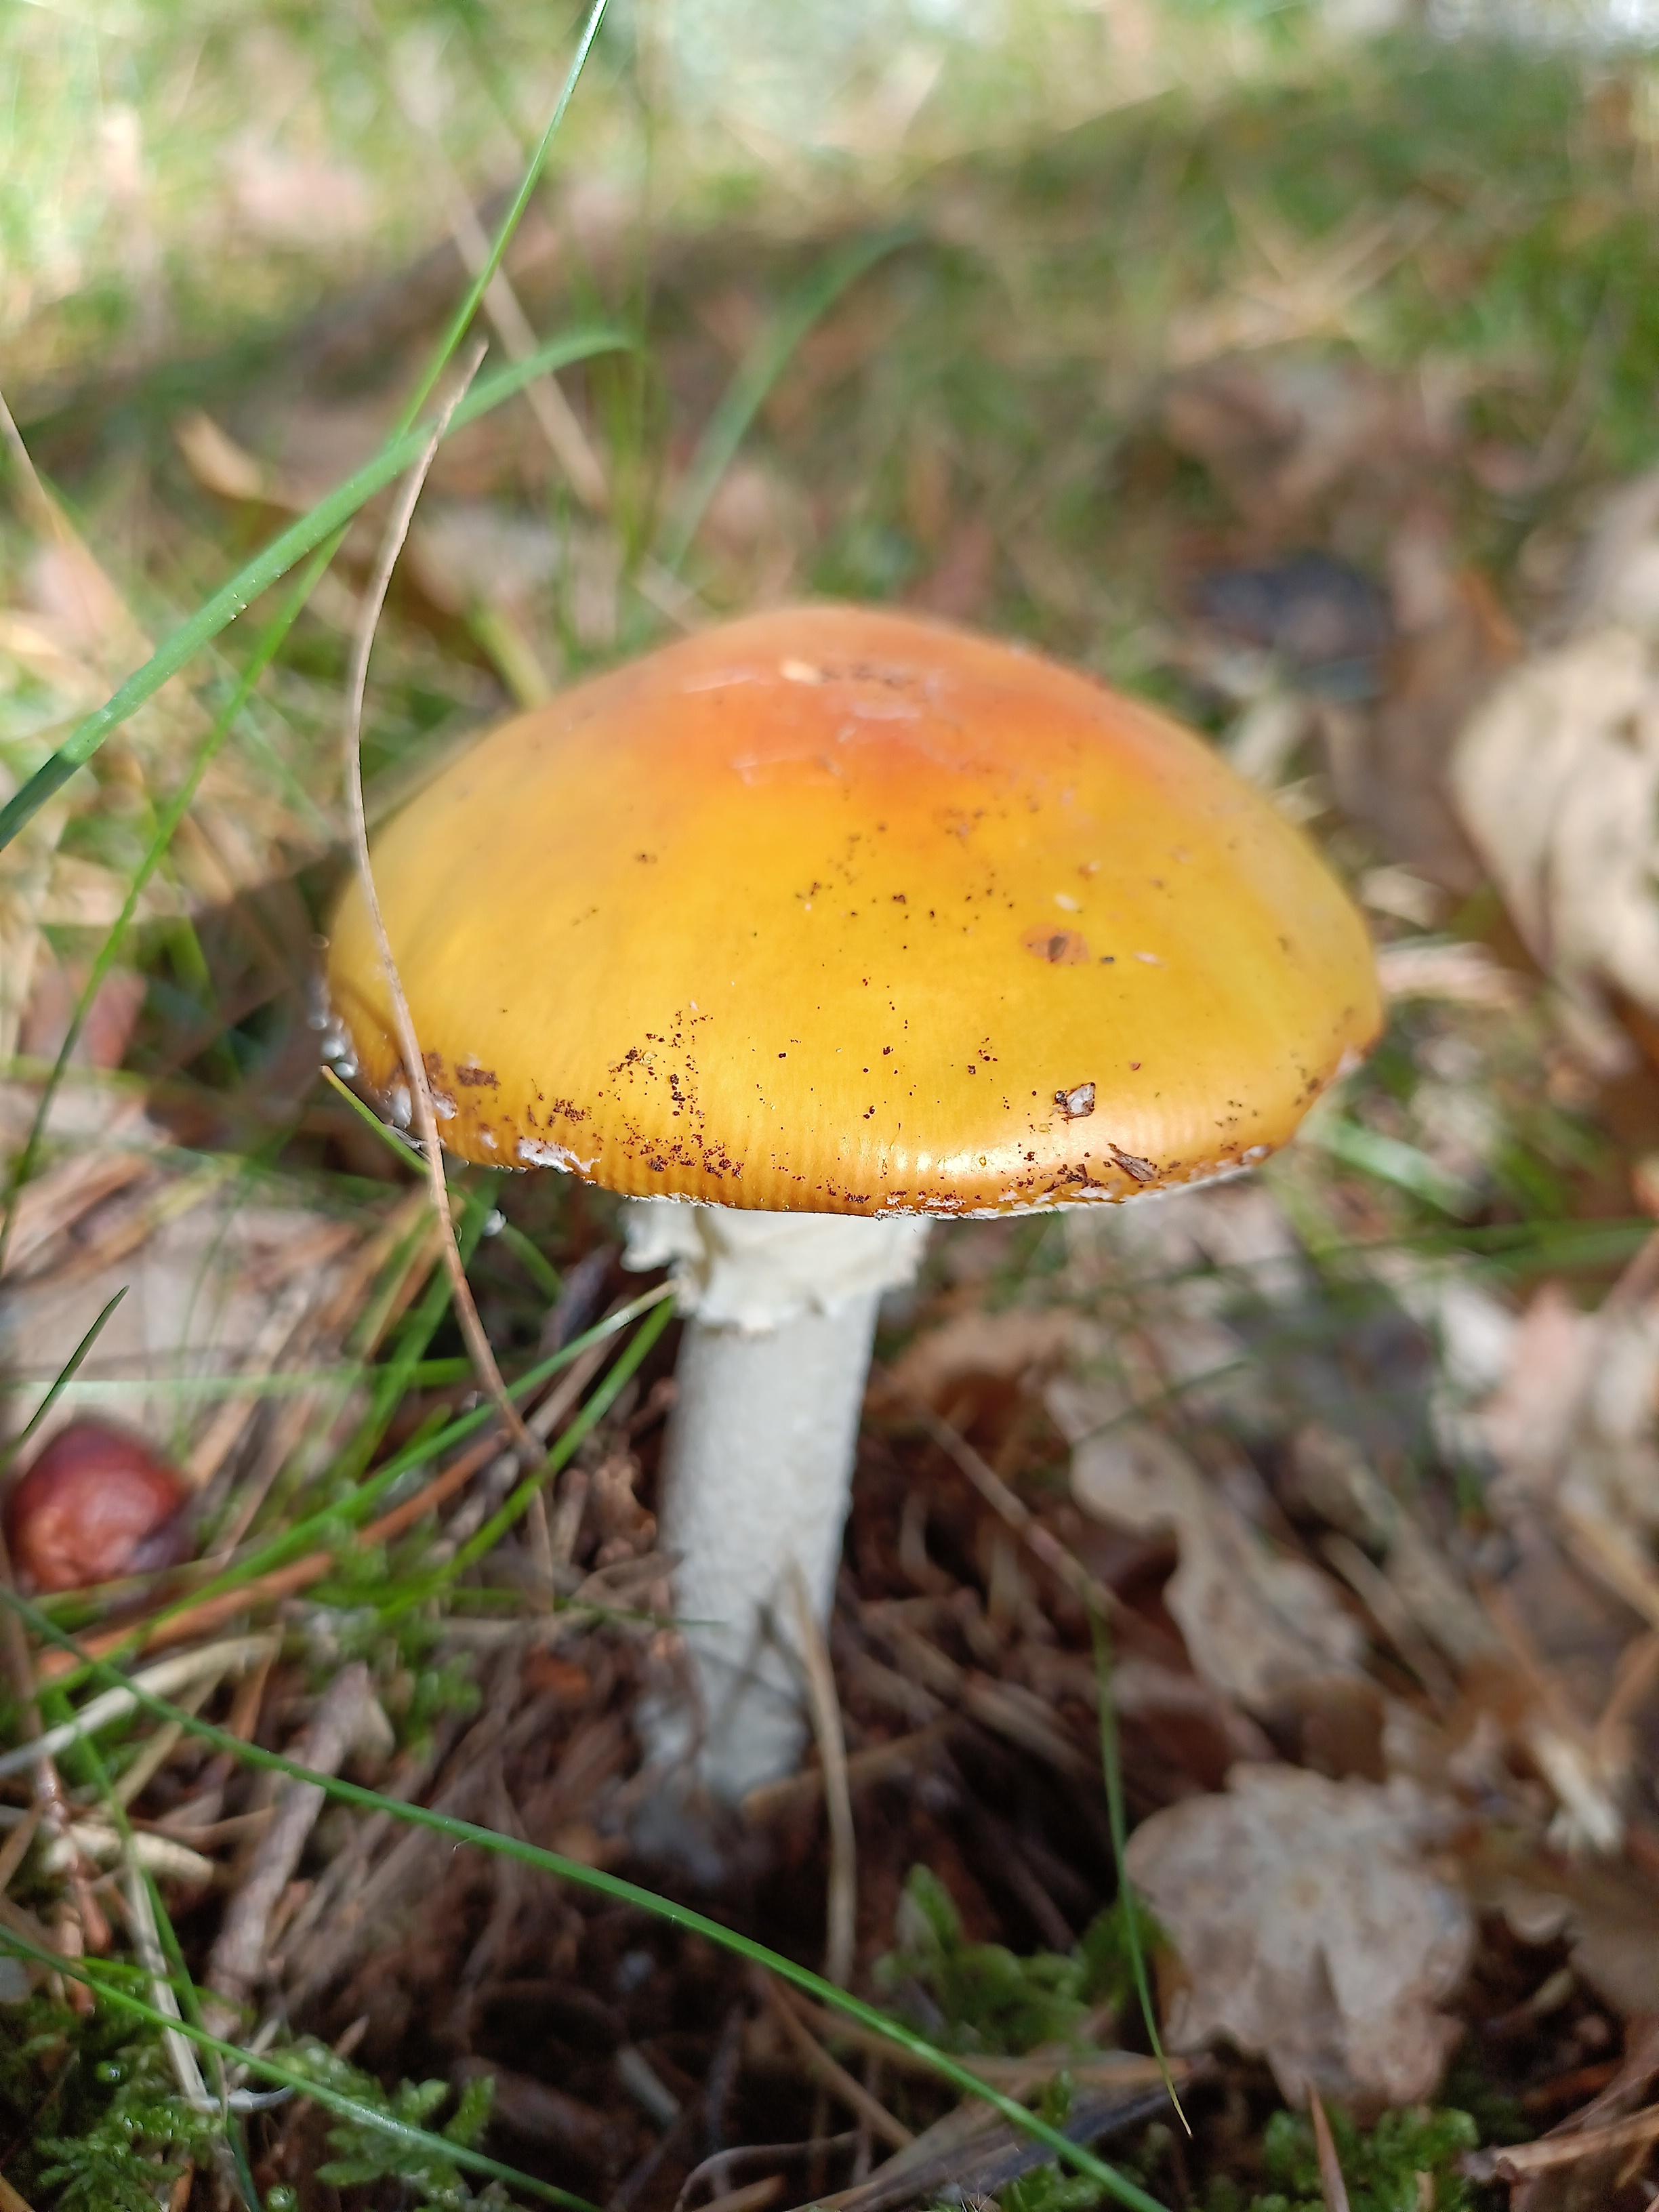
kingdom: Fungi
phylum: Basidiomycota
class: Agaricomycetes
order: Agaricales
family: Amanitaceae
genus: Amanita
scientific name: Amanita muscaria
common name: rød fluesvamp
